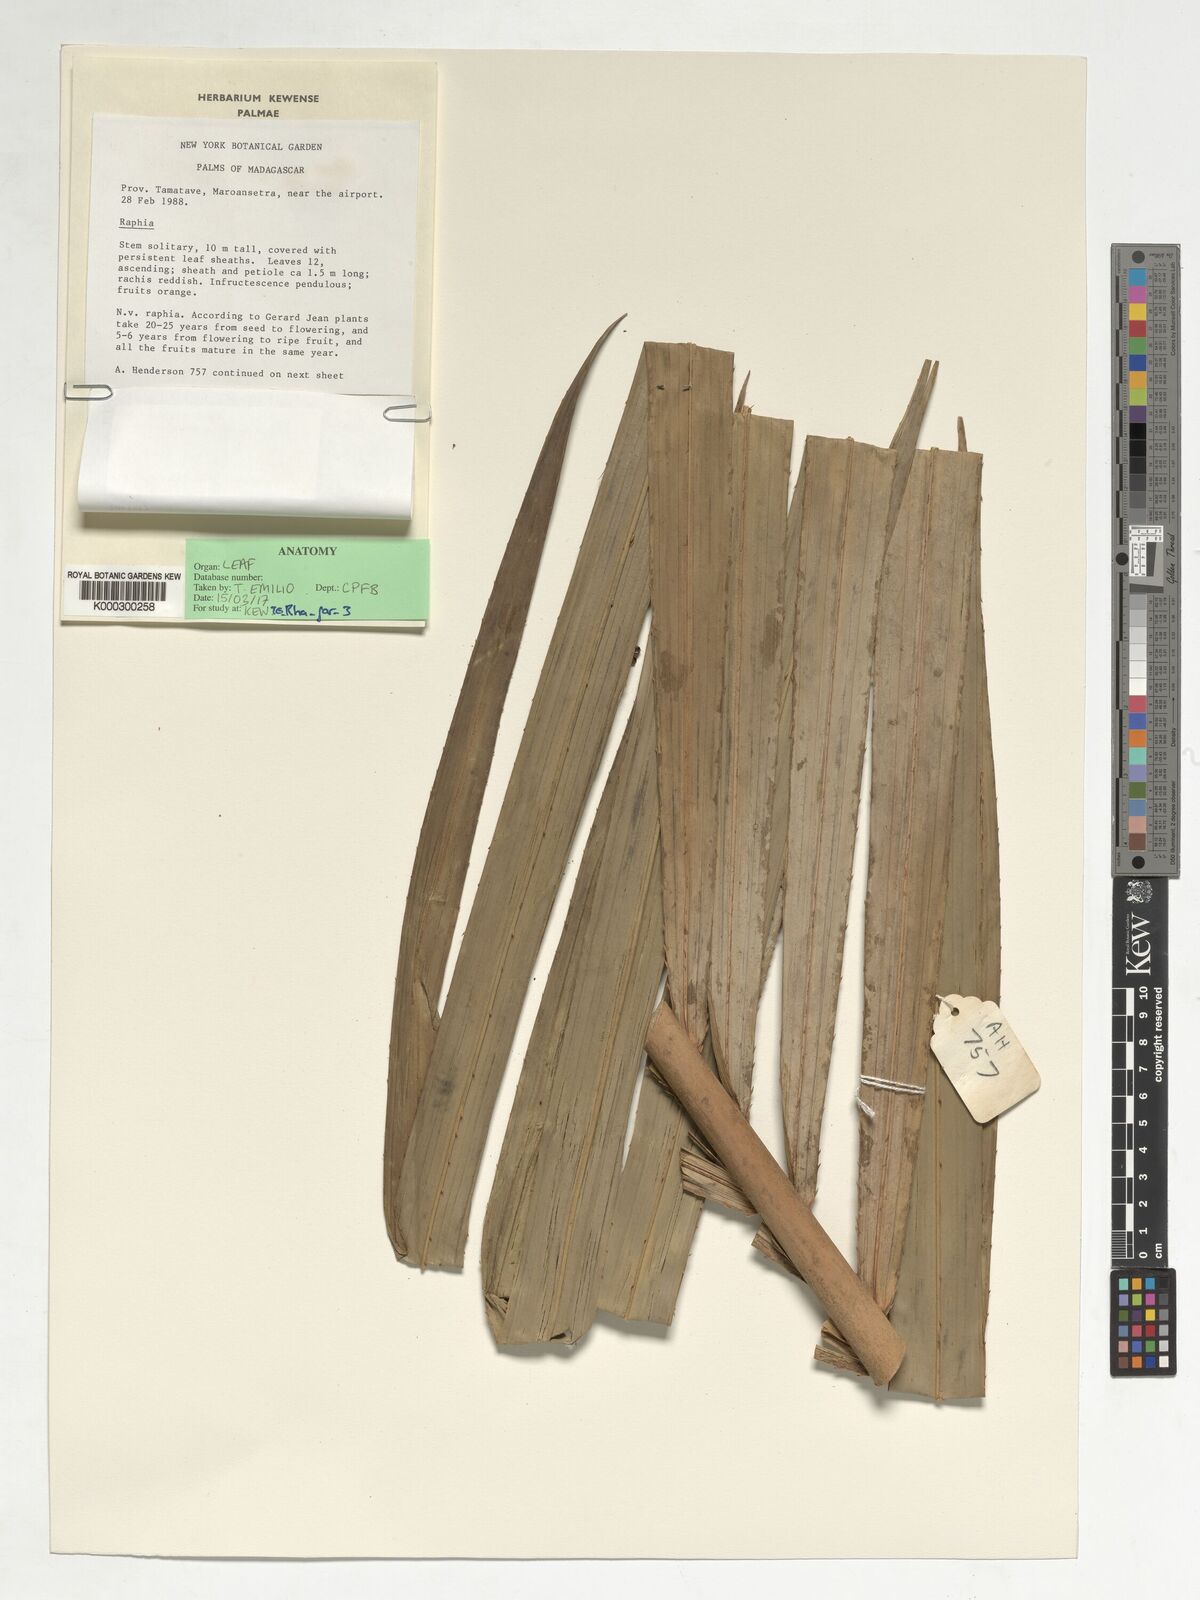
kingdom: Plantae
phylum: Tracheophyta
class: Liliopsida
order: Arecales
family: Arecaceae
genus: Raphia
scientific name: Raphia farinifera
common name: Raphia palm
